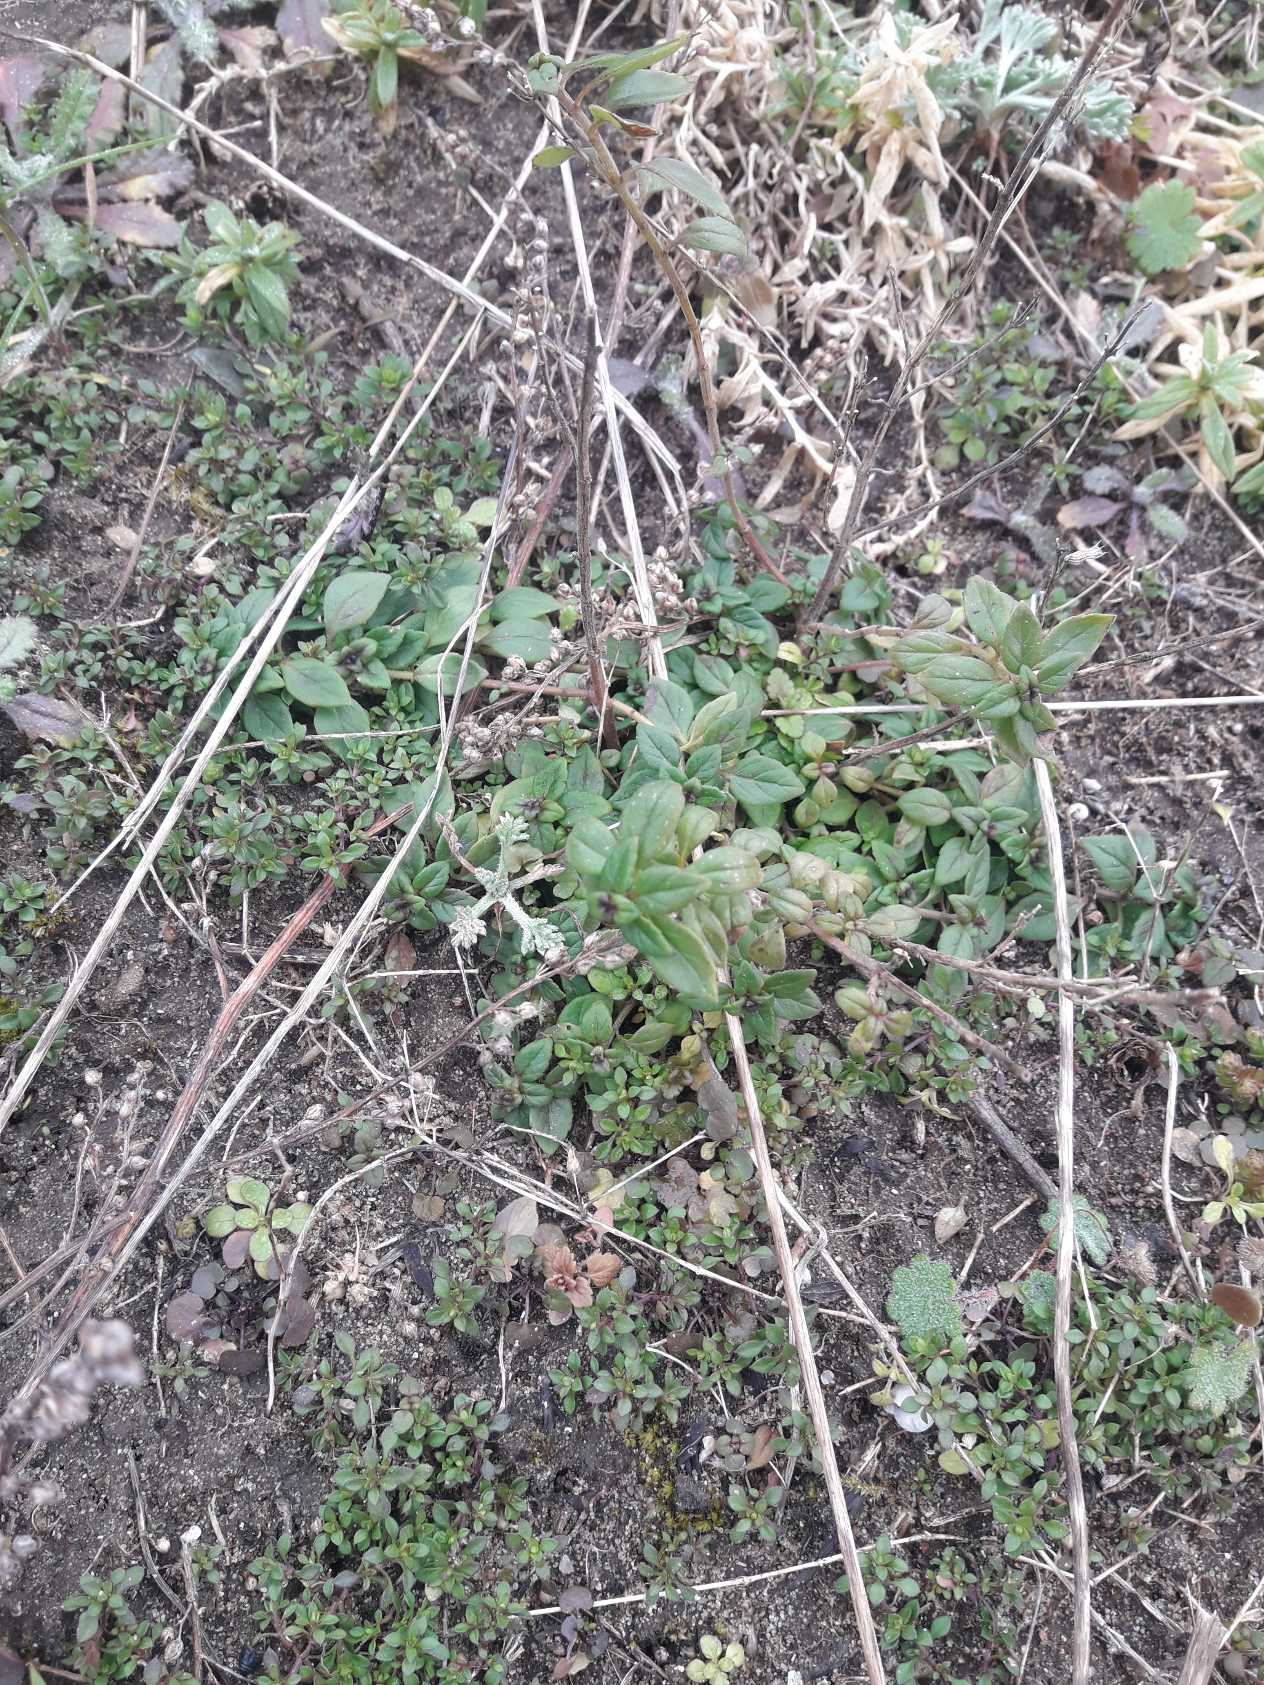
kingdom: Plantae
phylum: Tracheophyta
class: Magnoliopsida
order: Lamiales
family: Lamiaceae
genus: Clinopodium
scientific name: Clinopodium acinos
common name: Voldtimian
